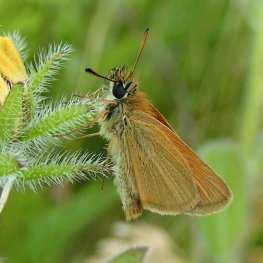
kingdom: Animalia
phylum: Arthropoda
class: Insecta
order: Lepidoptera
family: Hesperiidae
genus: Thymelicus
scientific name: Thymelicus lineola
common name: European Skipper
